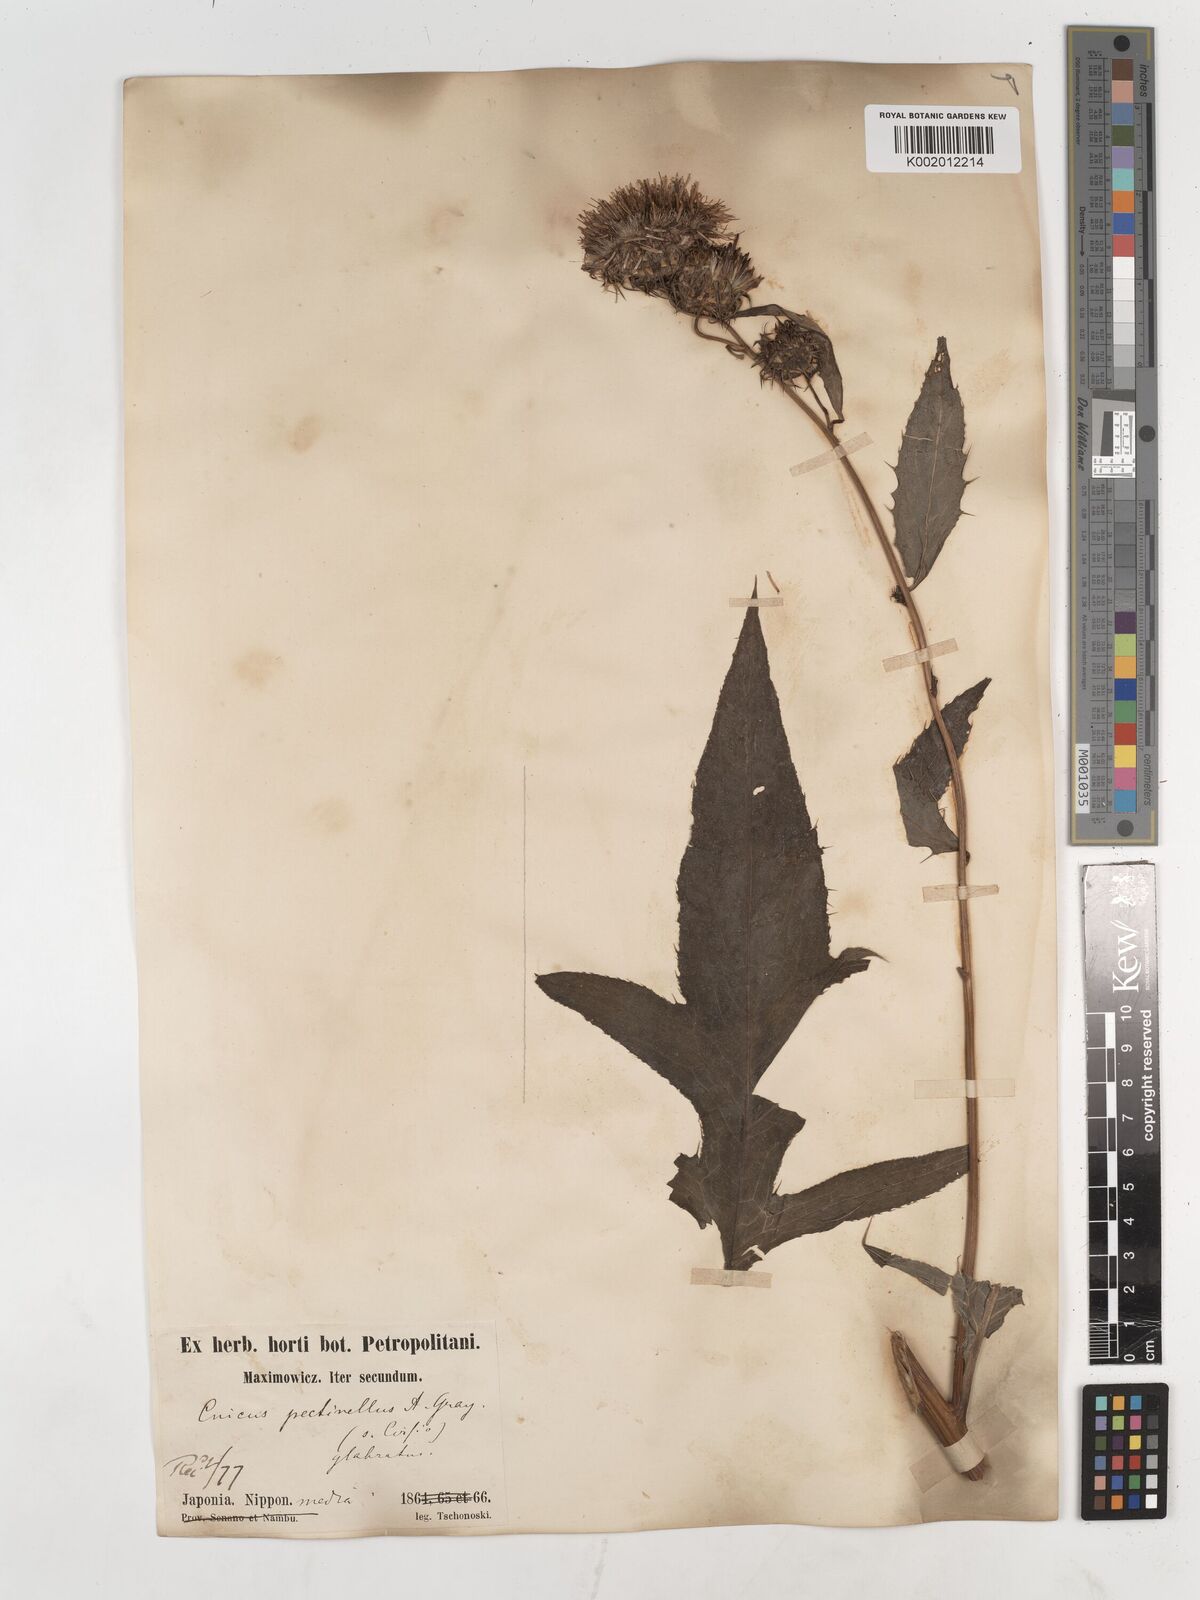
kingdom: Plantae
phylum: Tracheophyta
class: Magnoliopsida
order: Asterales
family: Asteraceae
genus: Cirsium
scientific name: Cirsium pectinellum
